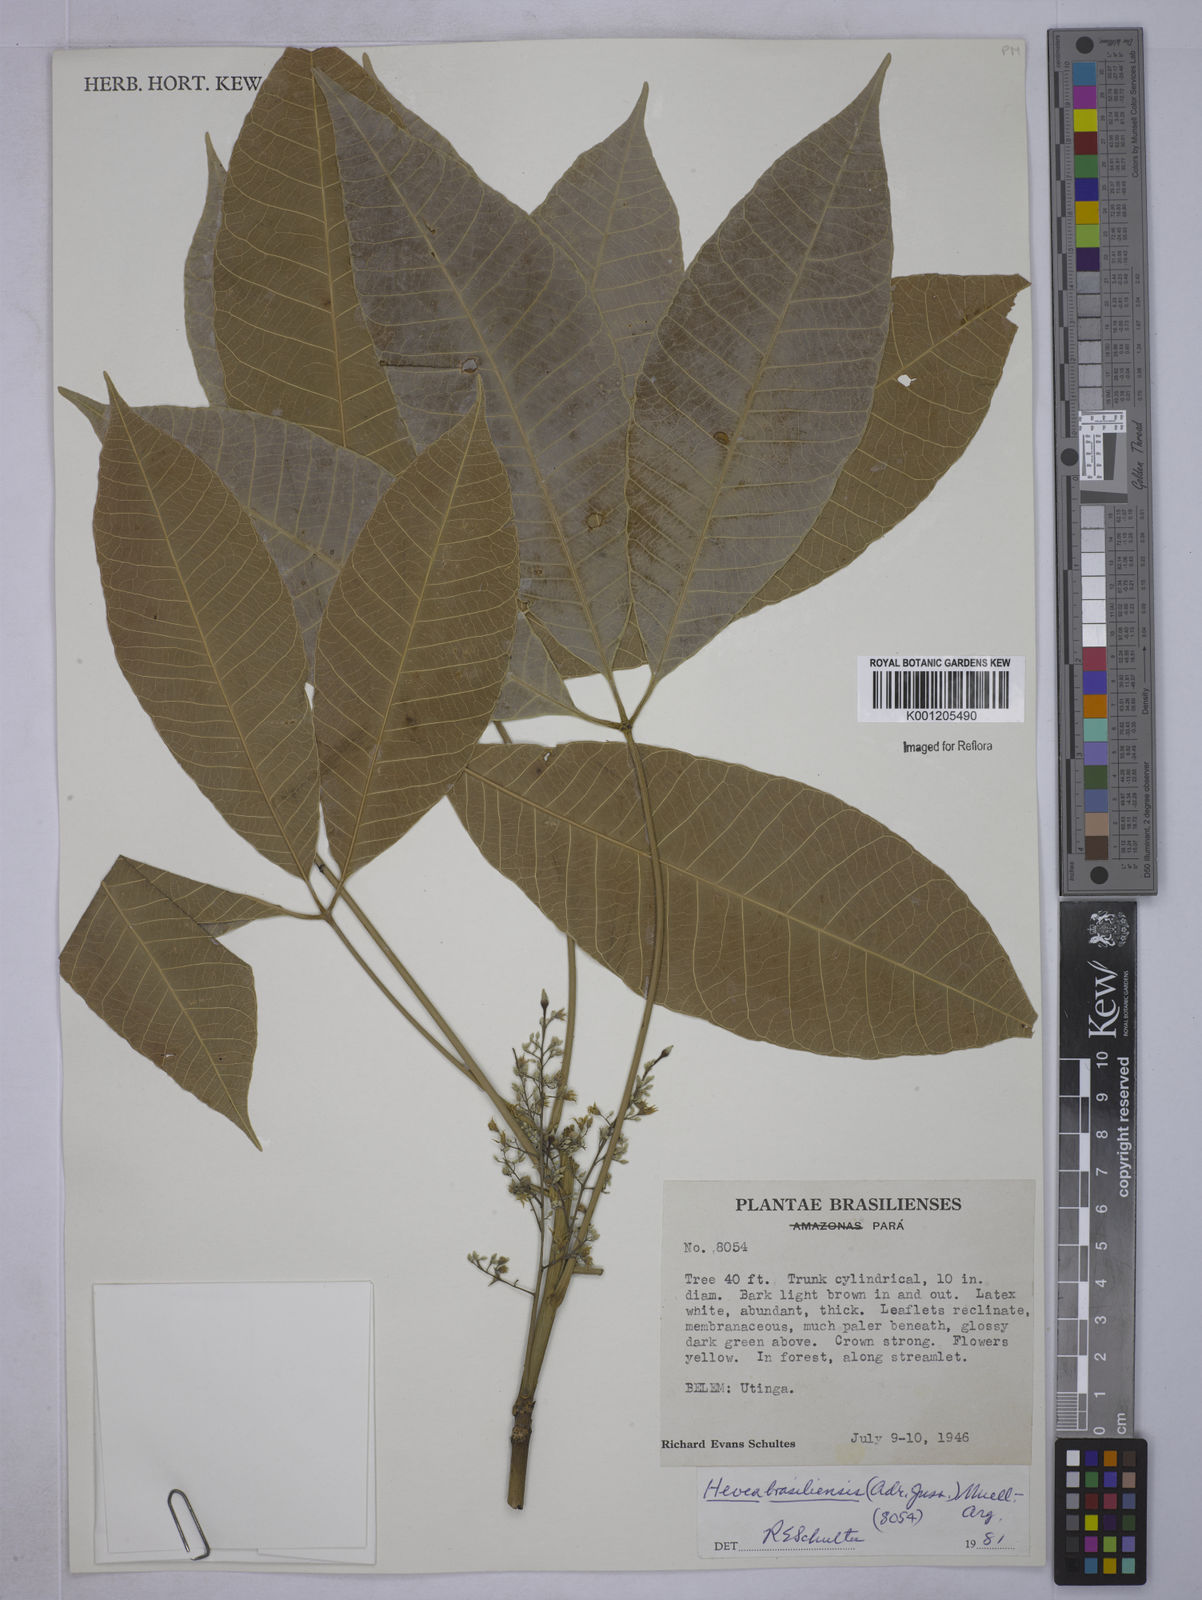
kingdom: Plantae
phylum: Tracheophyta
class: Magnoliopsida
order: Malpighiales
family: Euphorbiaceae
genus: Hevea
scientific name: Hevea
